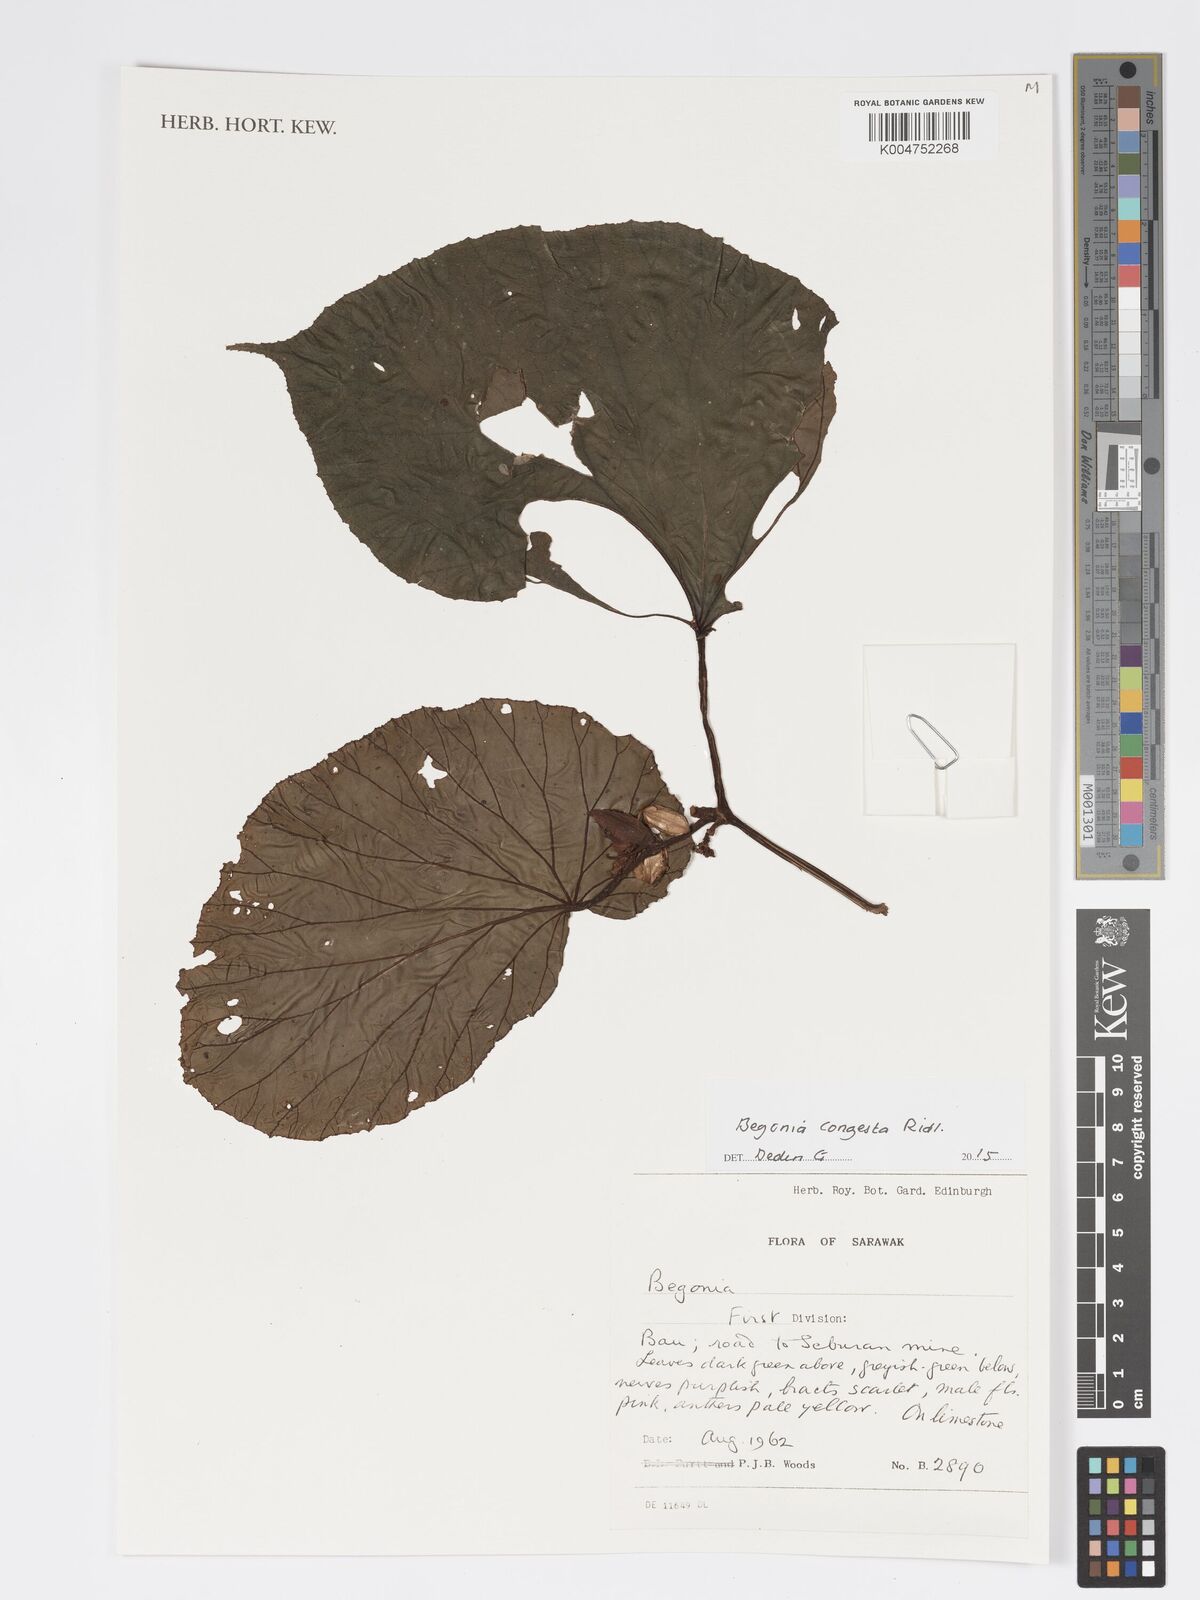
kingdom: Plantae
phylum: Tracheophyta
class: Magnoliopsida
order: Cucurbitales
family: Begoniaceae
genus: Begonia
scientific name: Begonia congesta
